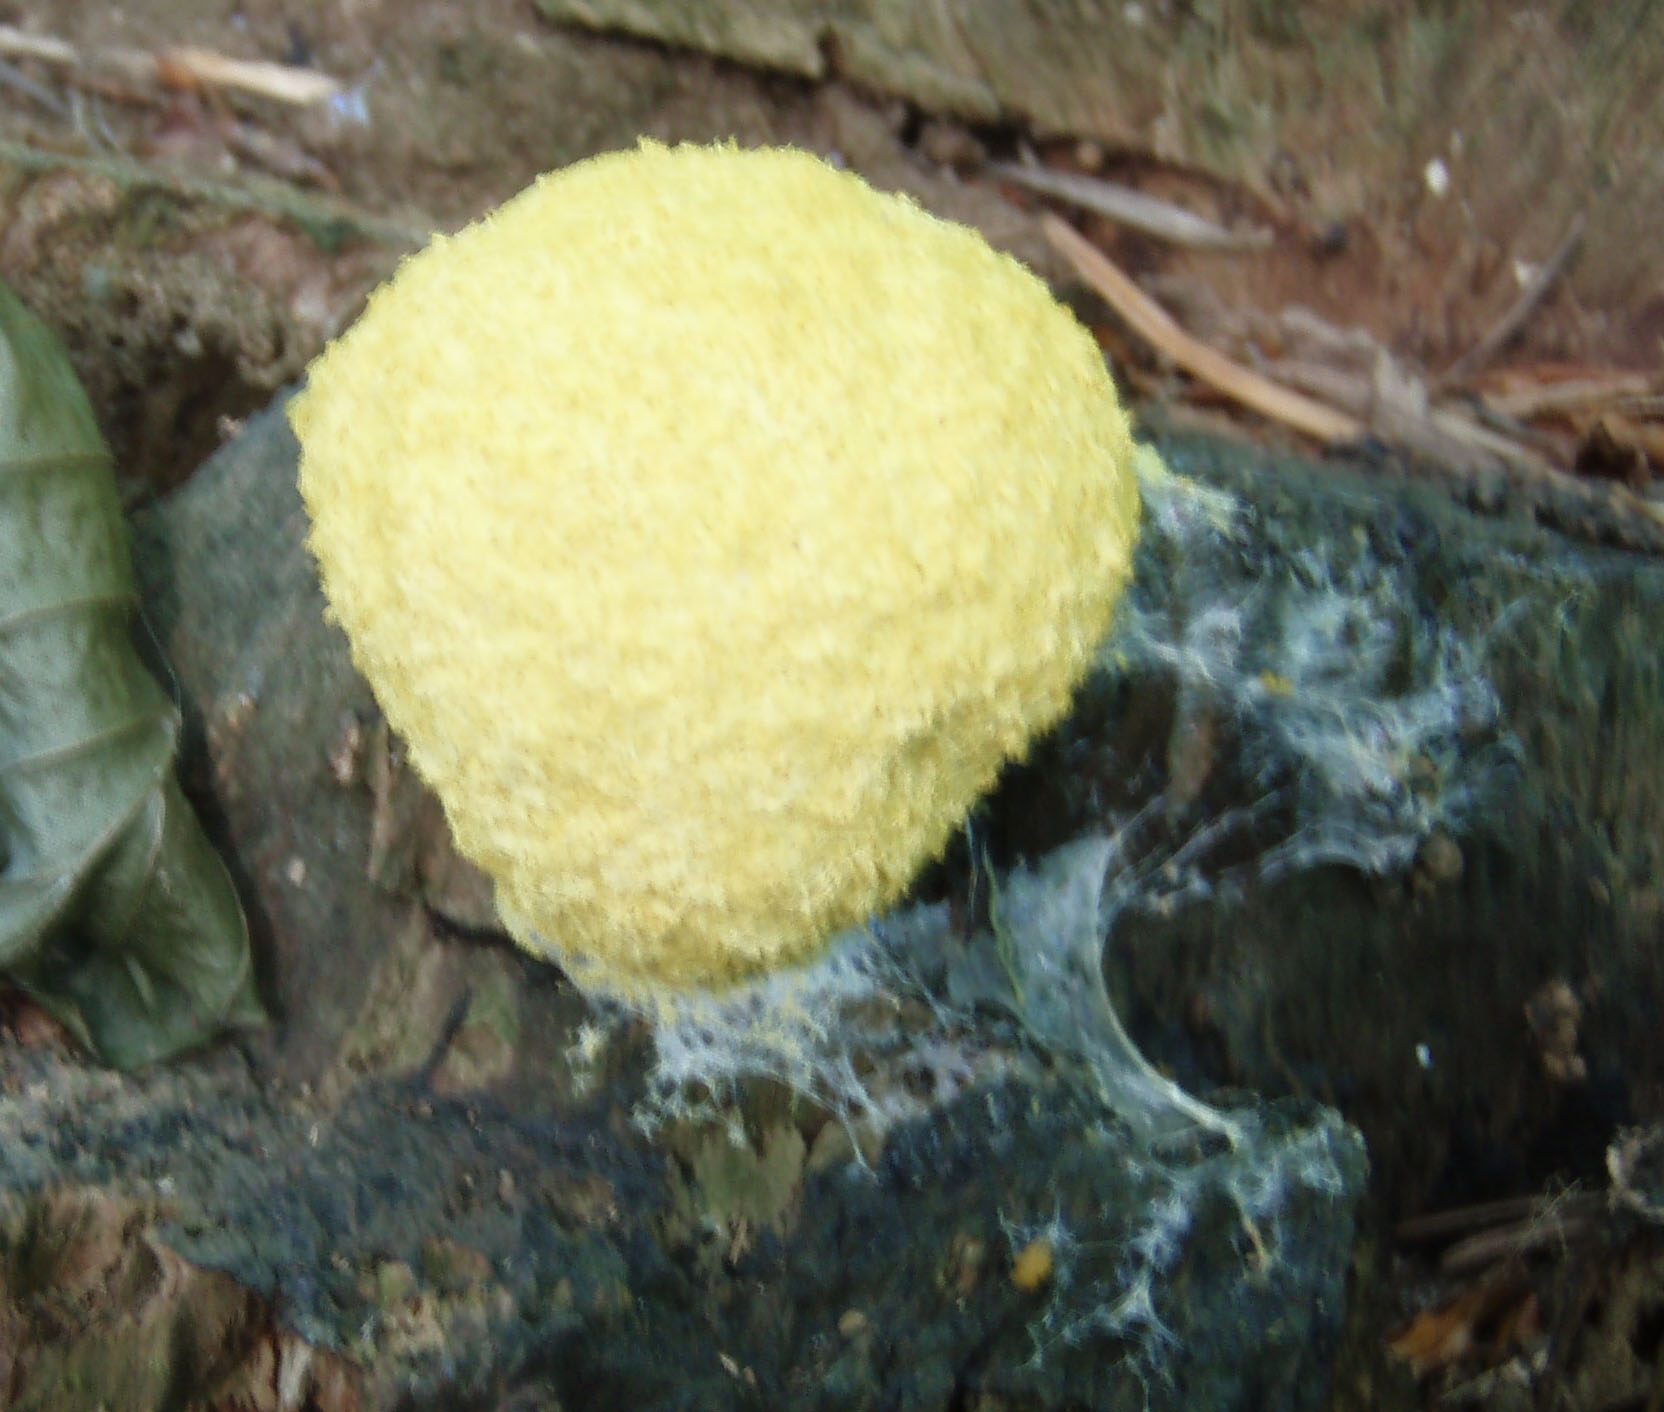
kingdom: Protozoa
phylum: Mycetozoa
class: Myxomycetes
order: Physarales
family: Physaraceae
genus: Fuligo
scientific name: Fuligo septica
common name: gul troldsmør
